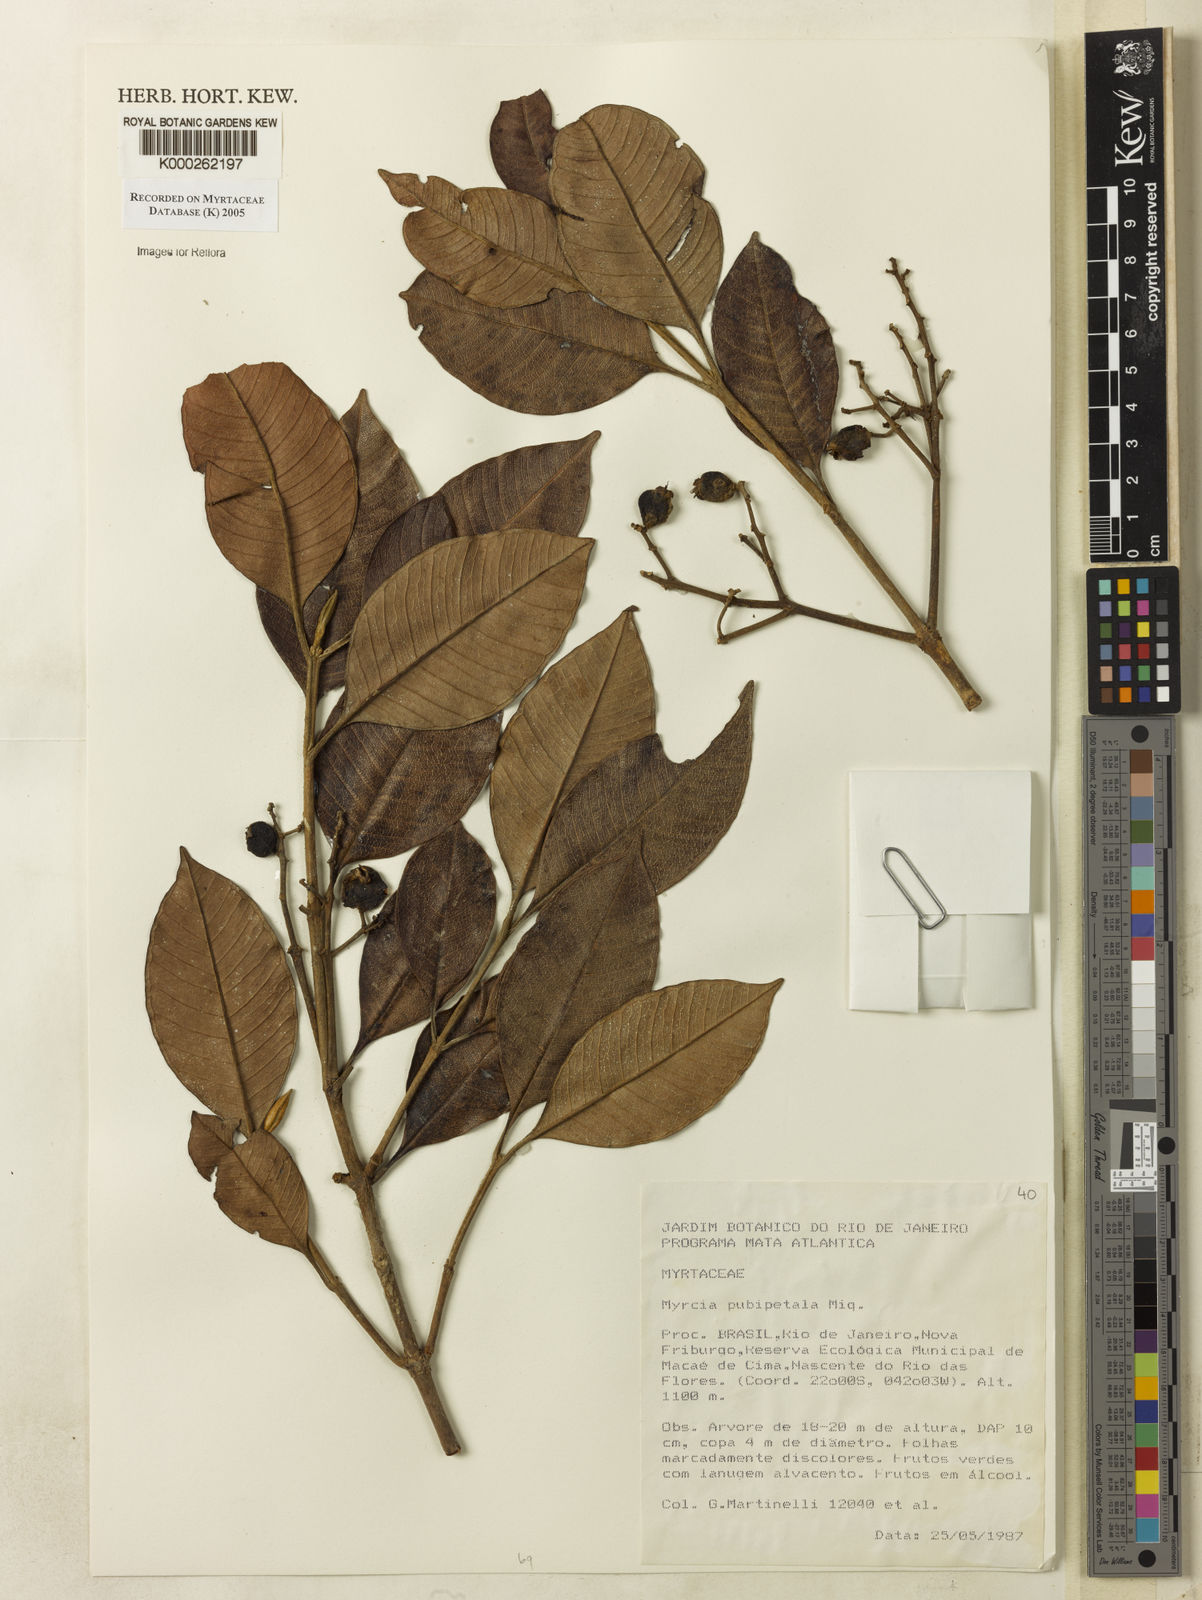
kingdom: Plantae
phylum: Tracheophyta
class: Magnoliopsida
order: Myrtales
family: Myrtaceae
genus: Myrcia
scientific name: Myrcia pubipetala
